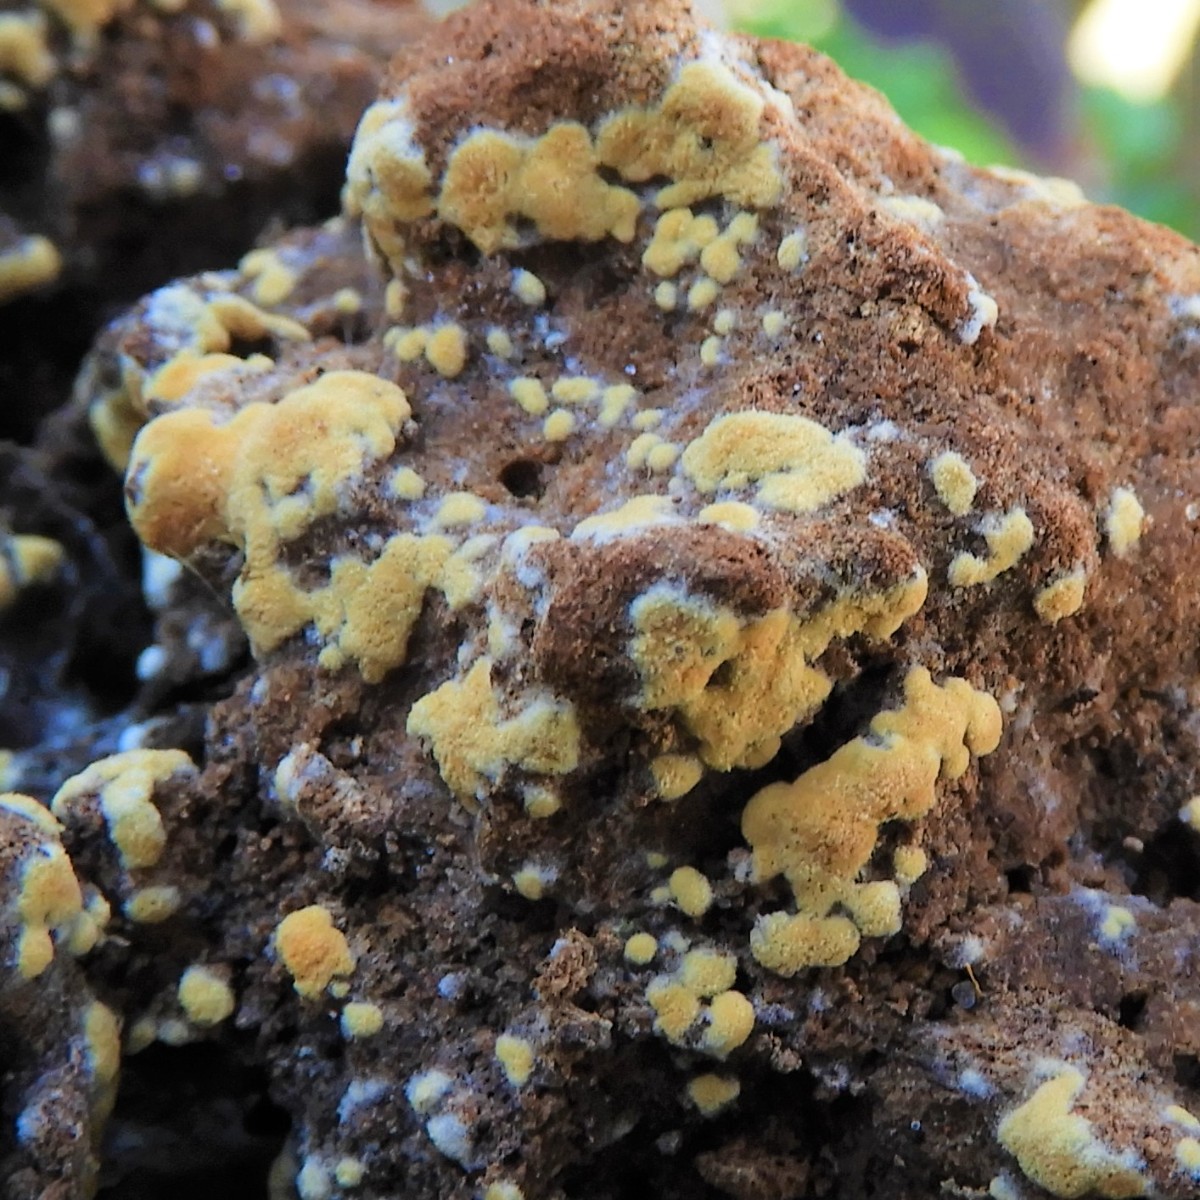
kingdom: Fungi
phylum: Basidiomycota
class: Agaricomycetes
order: Cantharellales
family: Botryobasidiaceae
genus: Botryobasidium
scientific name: Botryobasidium aureum
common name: gylden spindhinde
